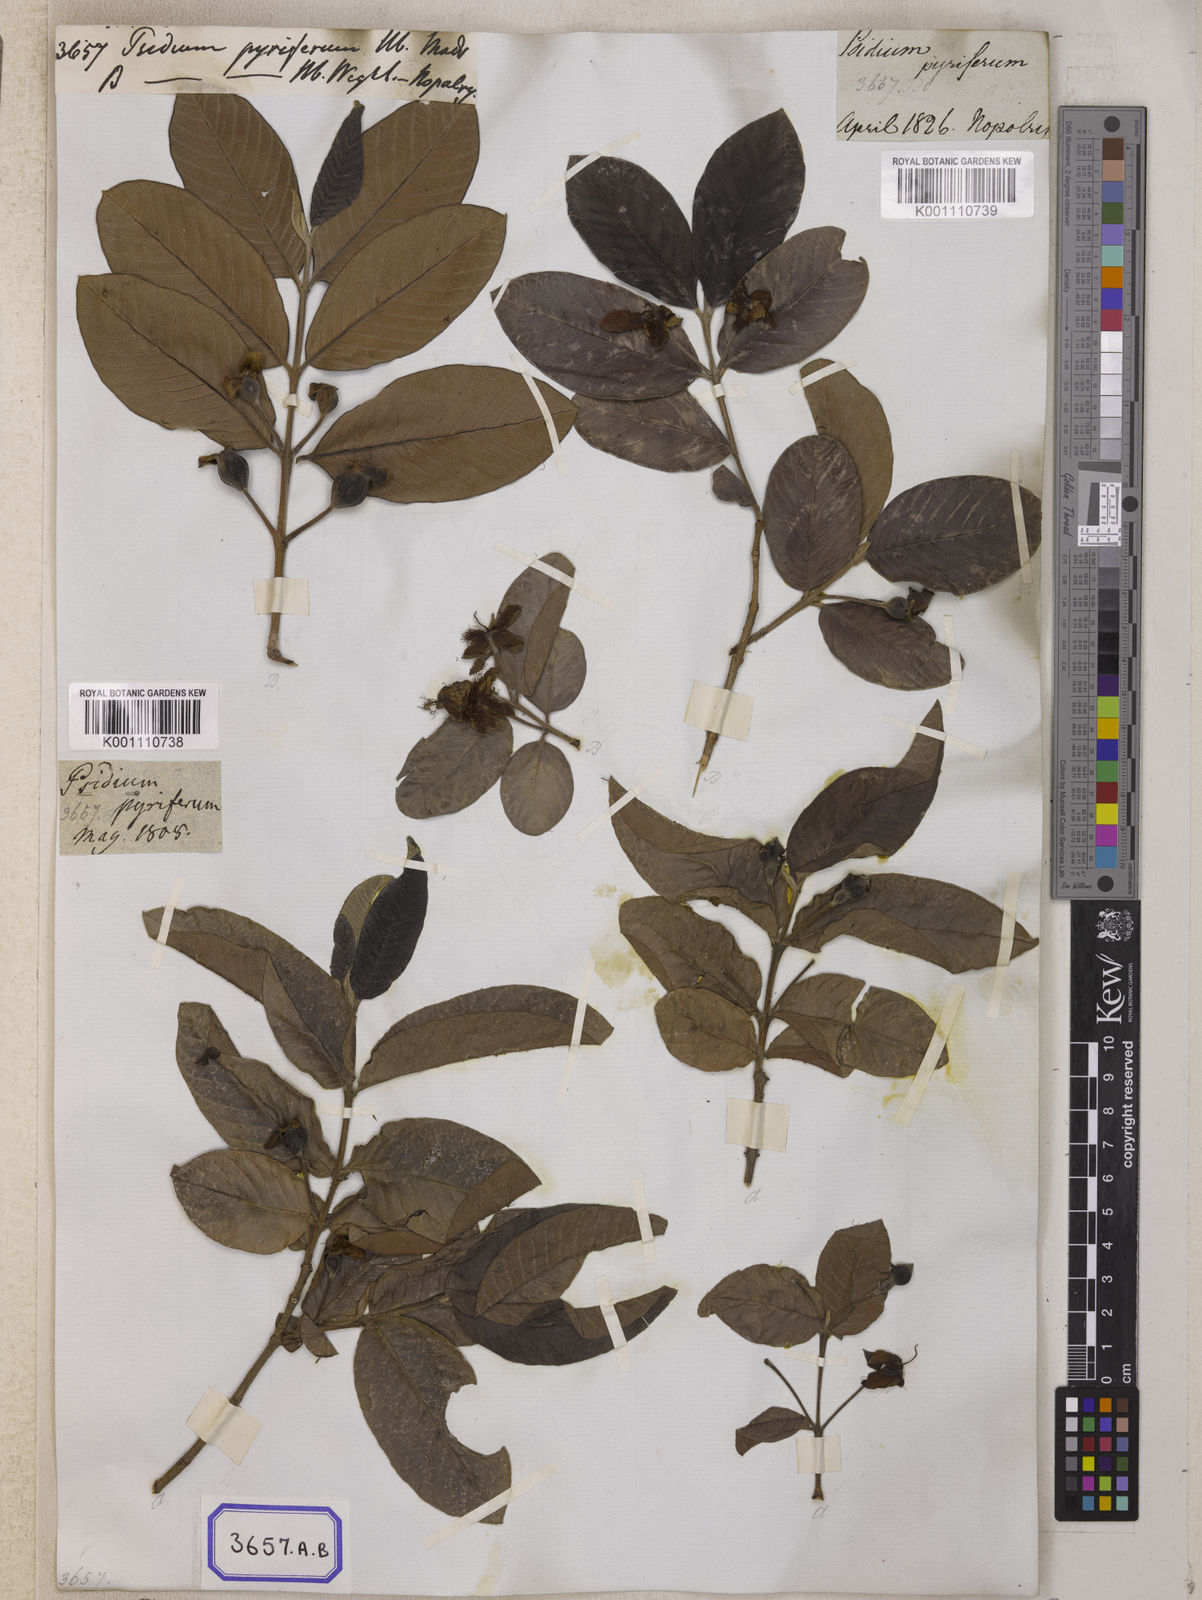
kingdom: Plantae
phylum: Tracheophyta
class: Magnoliopsida
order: Myrtales
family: Myrtaceae
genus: Psidium
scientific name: Psidium guajava
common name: Guava
